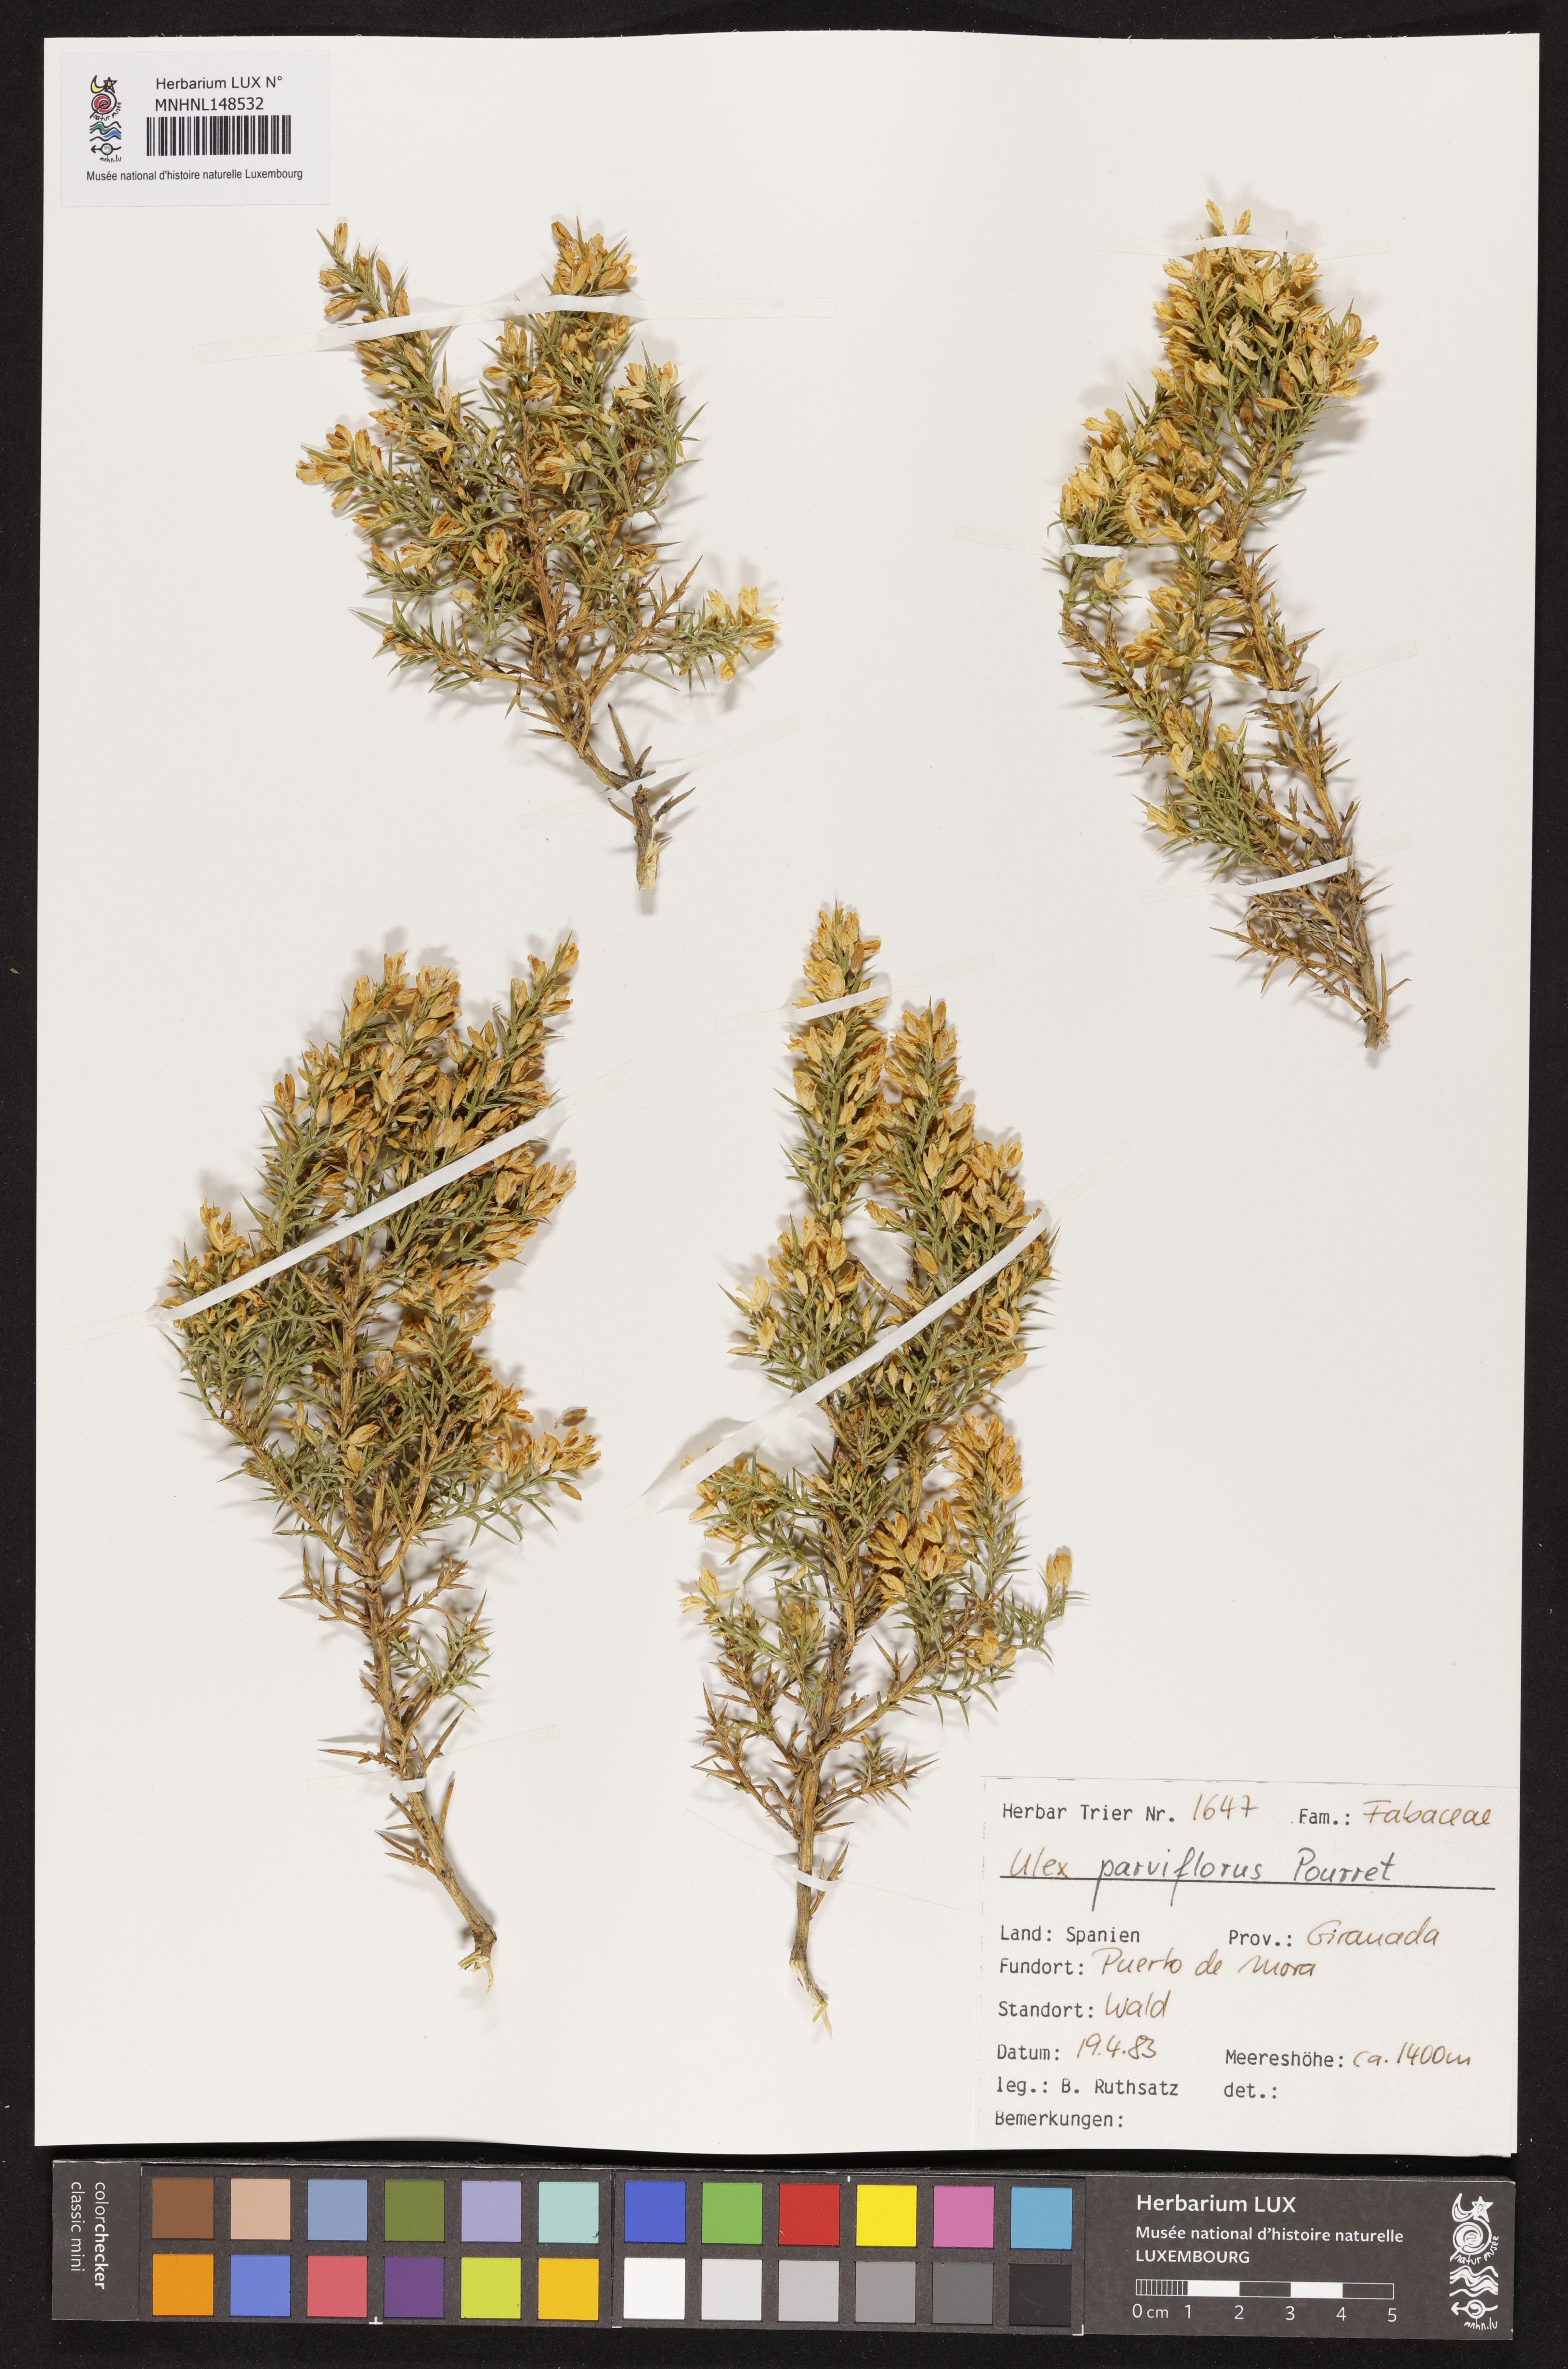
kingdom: Plantae
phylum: Tracheophyta
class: Magnoliopsida
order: Fabales
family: Fabaceae
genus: Ulex
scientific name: Ulex parviflorus
